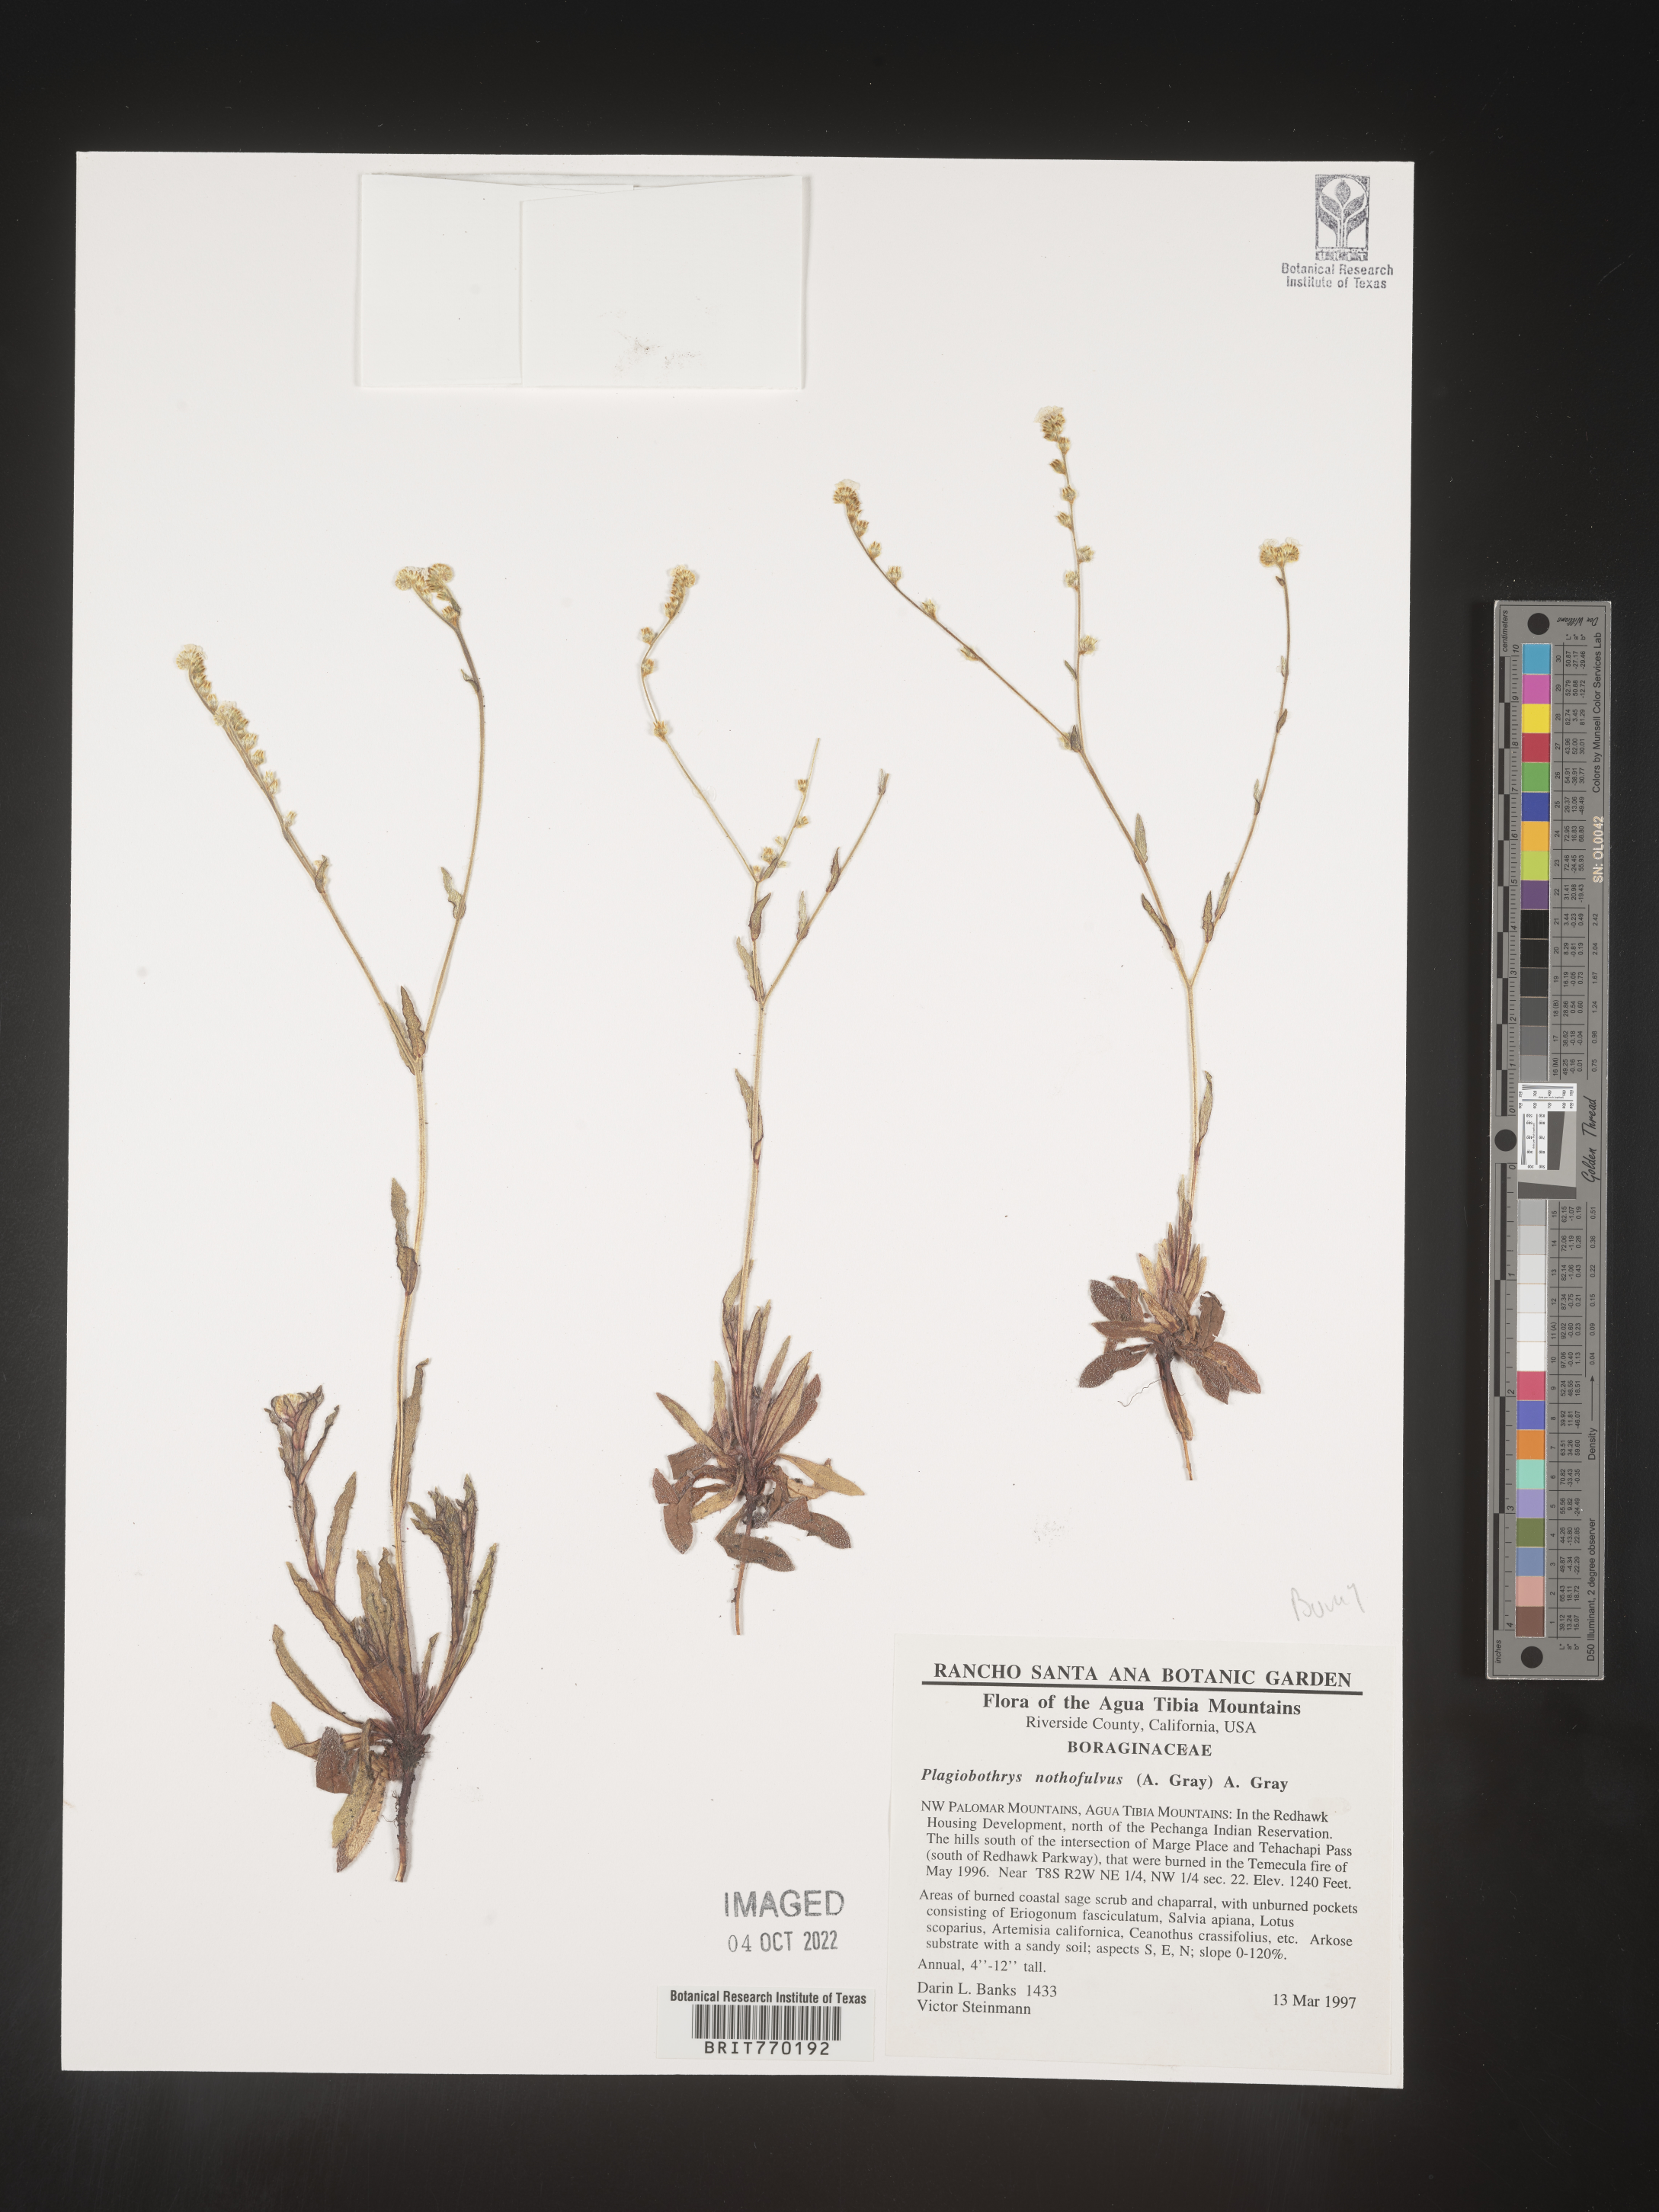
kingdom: Plantae
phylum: Tracheophyta
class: Magnoliopsida
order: Boraginales
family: Boraginaceae
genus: Plagiobothrys
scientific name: Plagiobothrys
